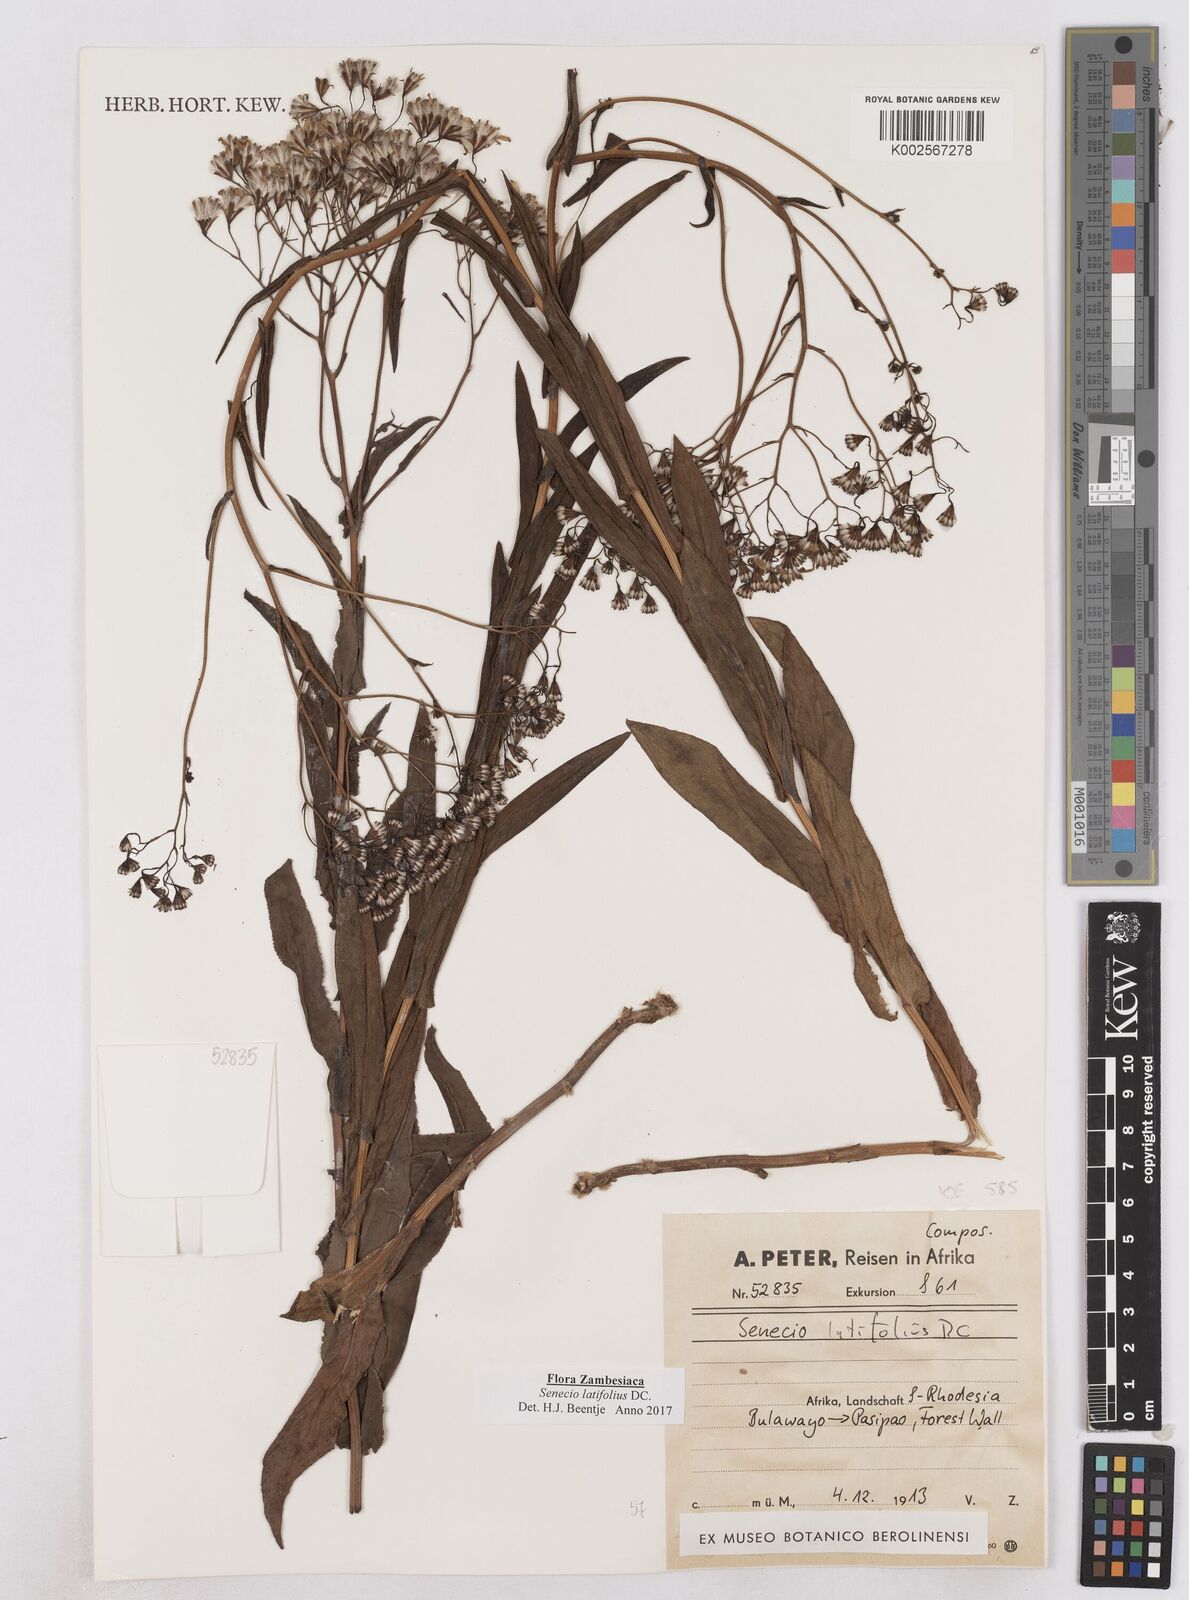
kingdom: Plantae
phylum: Tracheophyta
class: Magnoliopsida
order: Asterales
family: Asteraceae
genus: Senecio
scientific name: Senecio latifolius
